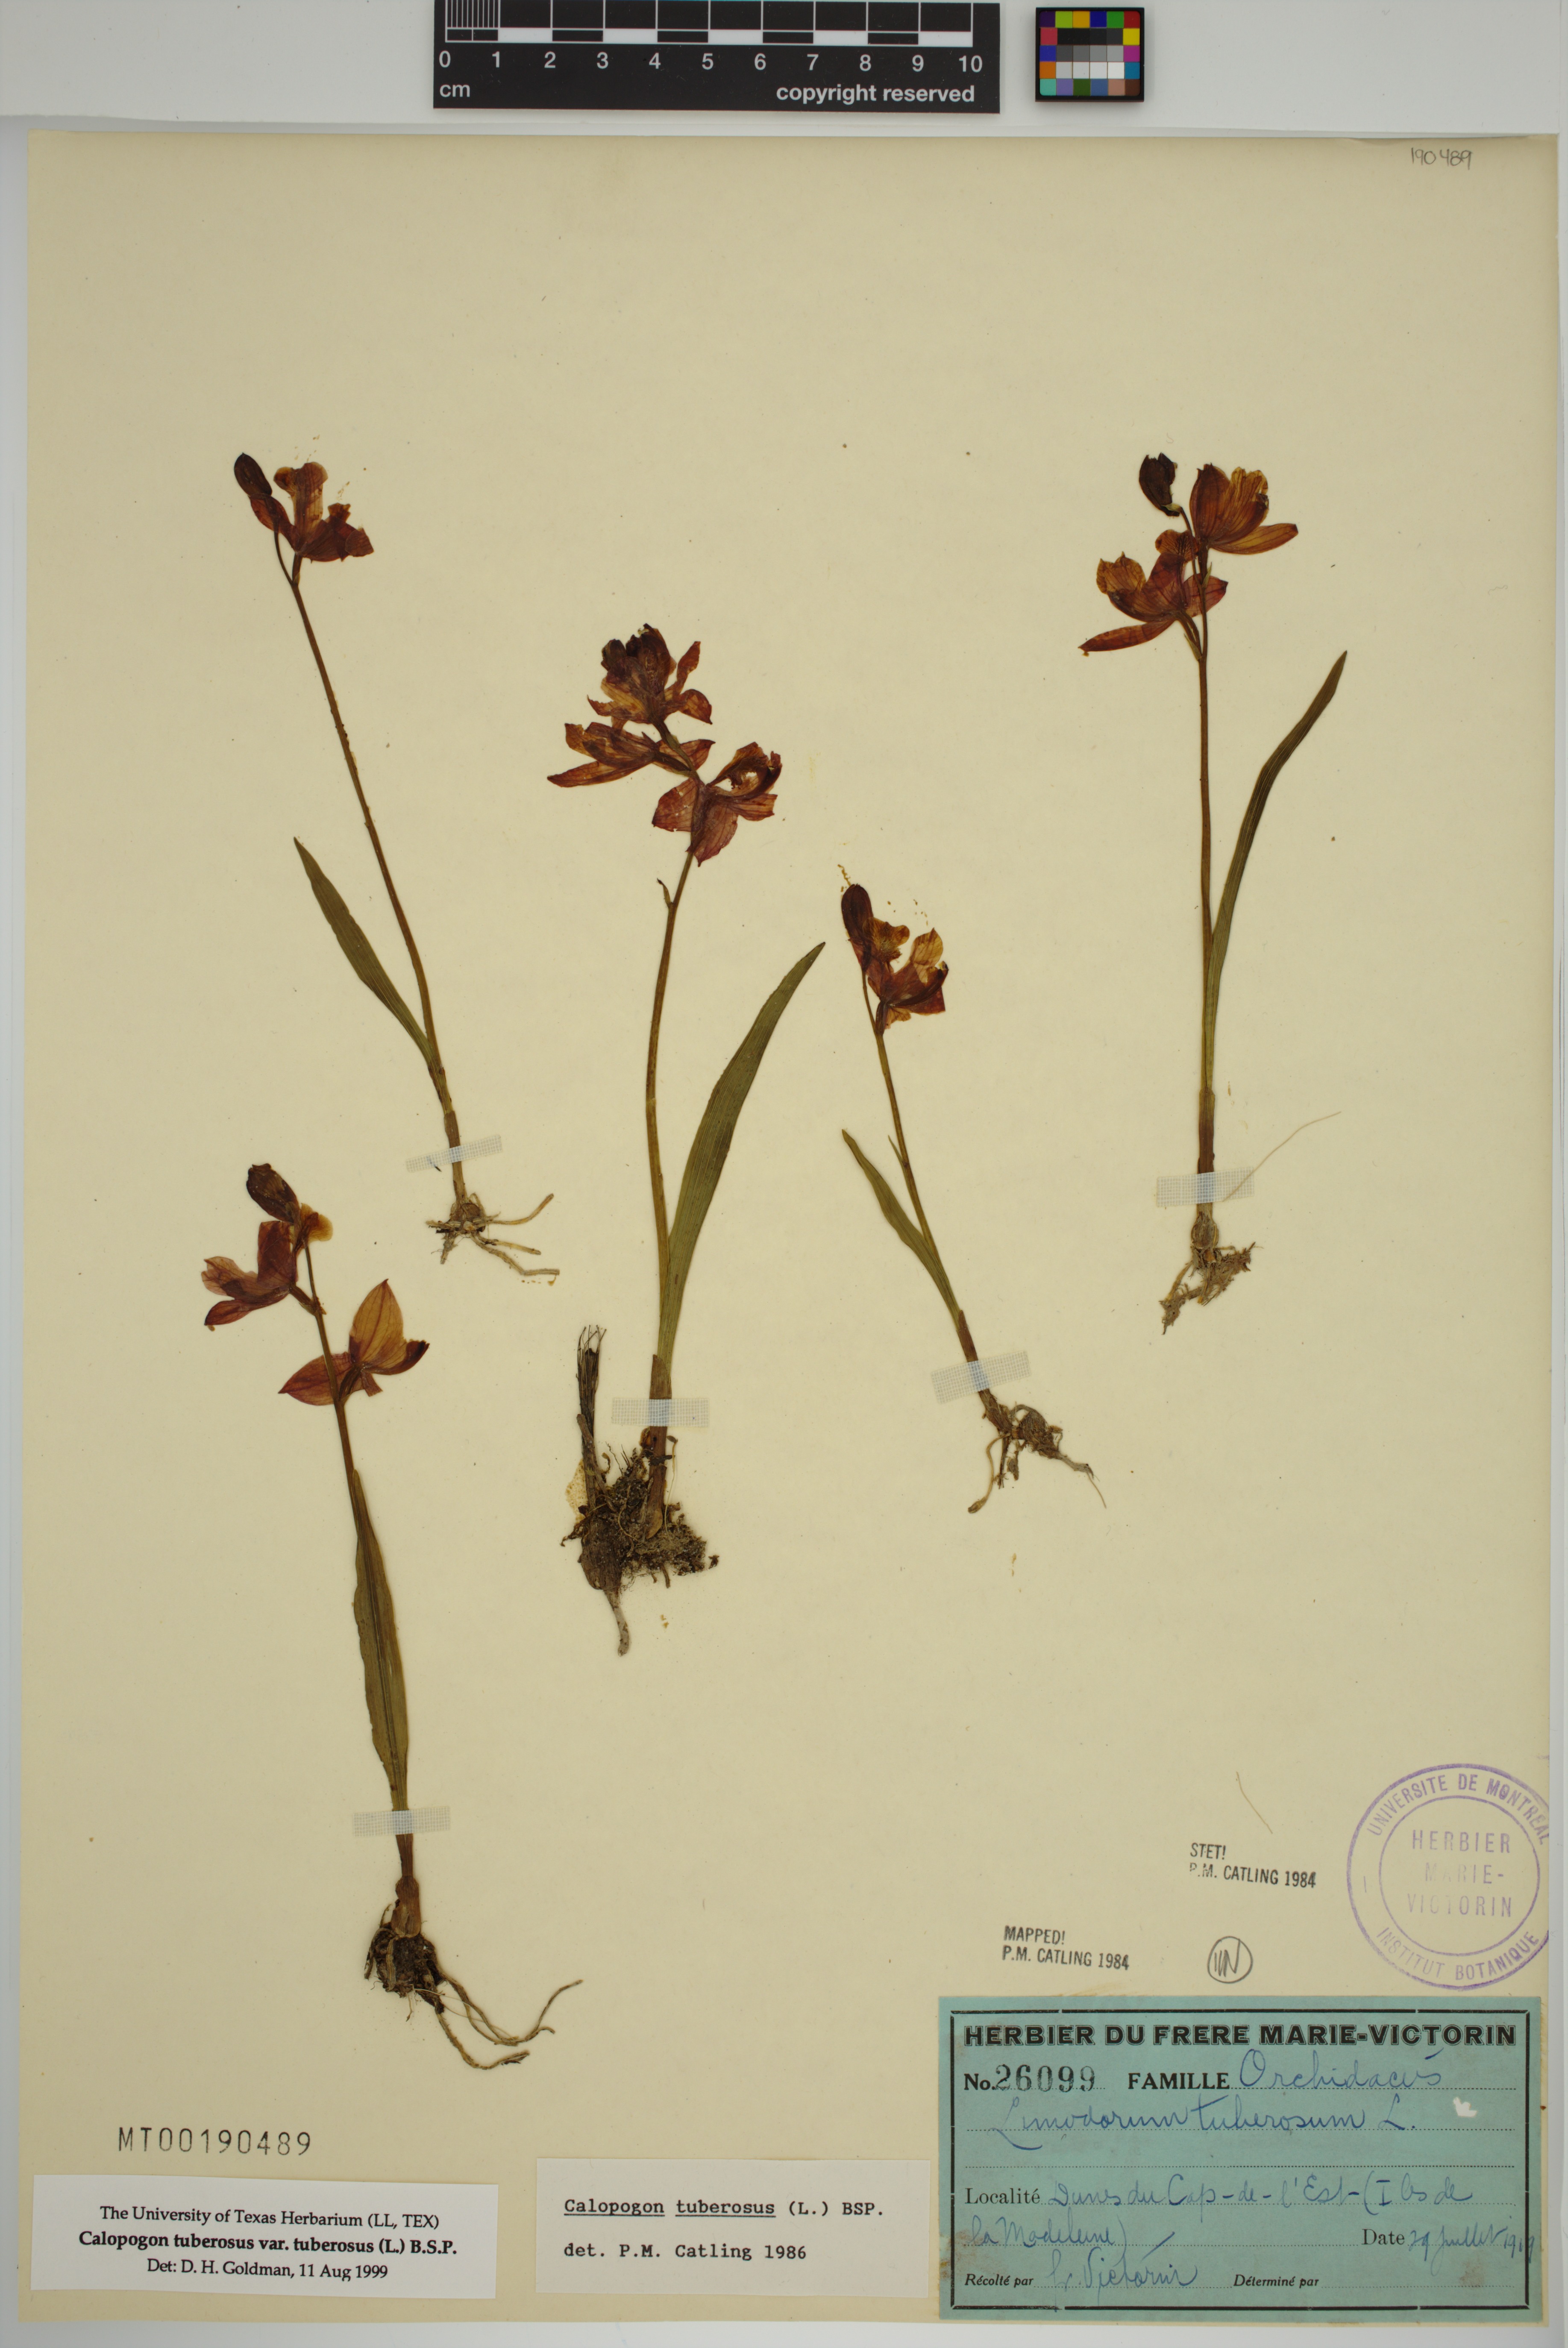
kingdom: Plantae
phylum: Tracheophyta
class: Liliopsida
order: Asparagales
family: Orchidaceae
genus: Calopogon
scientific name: Calopogon tuberosus
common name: Grass-pink
